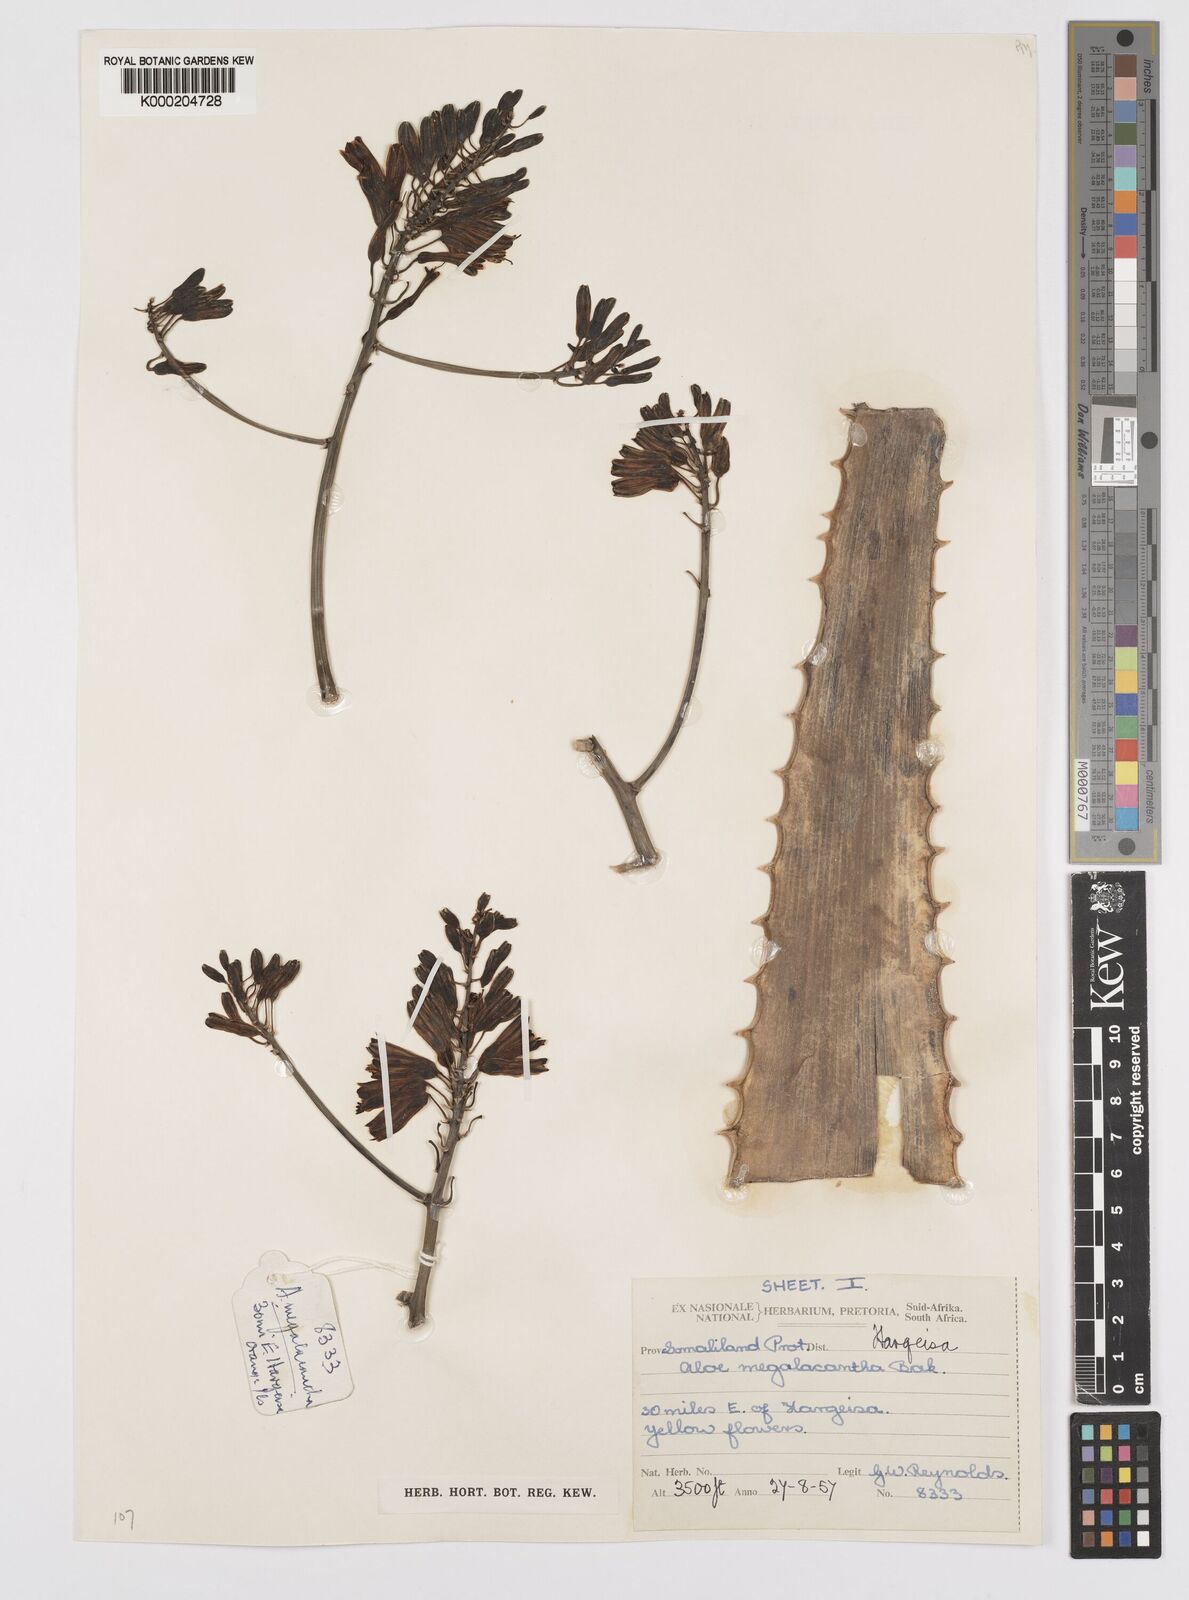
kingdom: Plantae
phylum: Tracheophyta
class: Liliopsida
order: Asparagales
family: Asphodelaceae
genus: Aloe
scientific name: Aloe megalacantha
